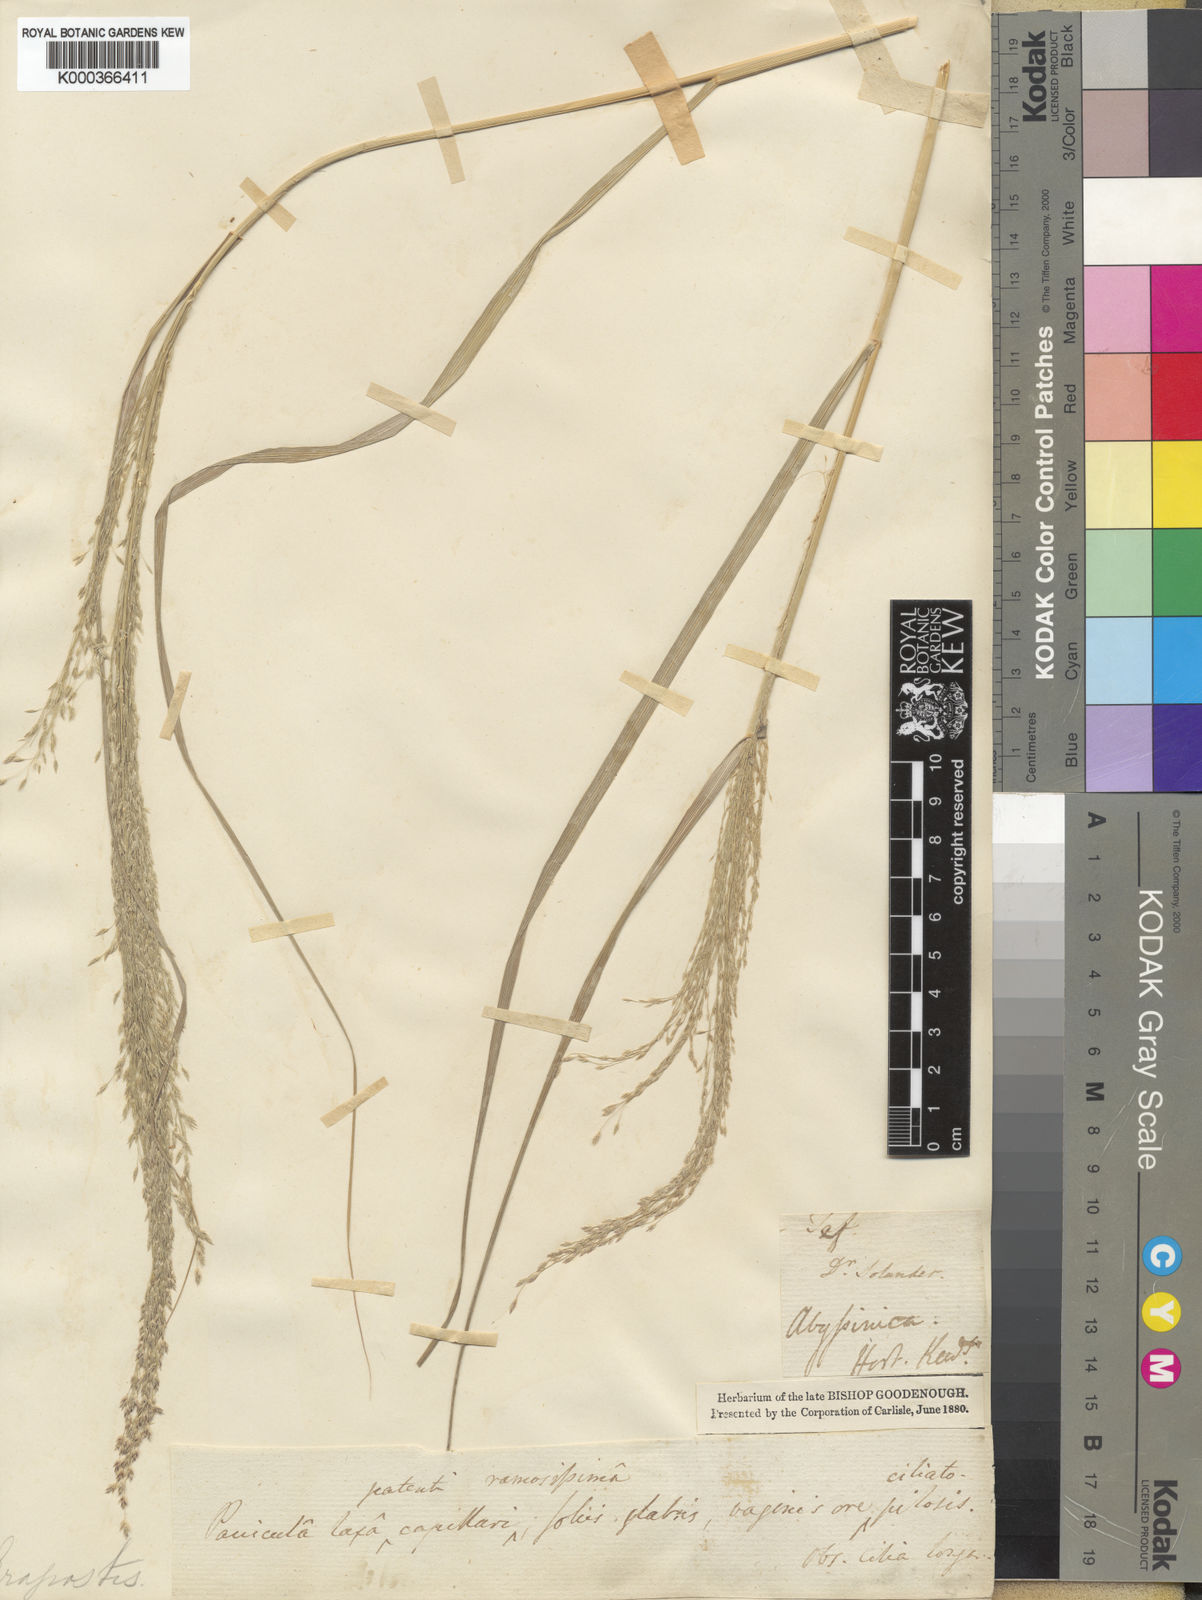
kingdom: Plantae
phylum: Tracheophyta
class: Liliopsida
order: Poales
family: Poaceae
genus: Eragrostis
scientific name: Eragrostis tef
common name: Teff
